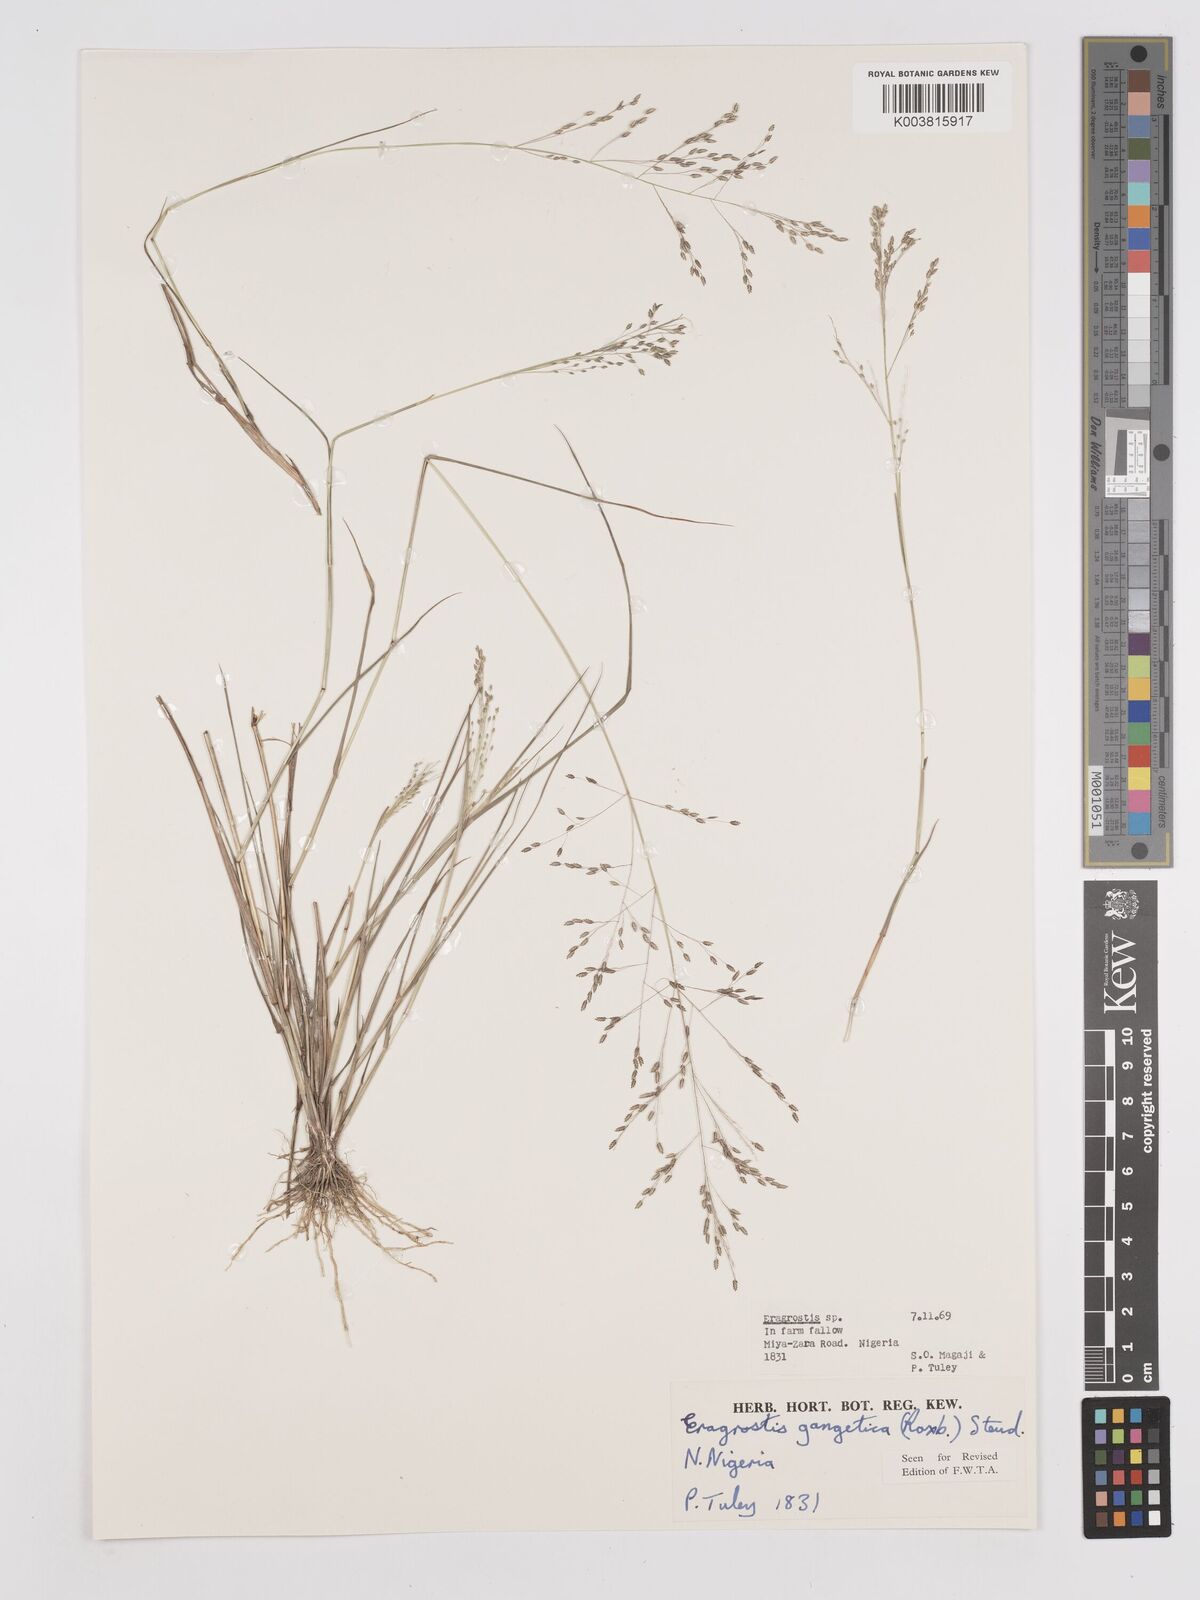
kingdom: Plantae
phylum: Tracheophyta
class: Liliopsida
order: Poales
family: Poaceae
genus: Eragrostis
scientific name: Eragrostis gangetica
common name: Slimflower lovegrass
